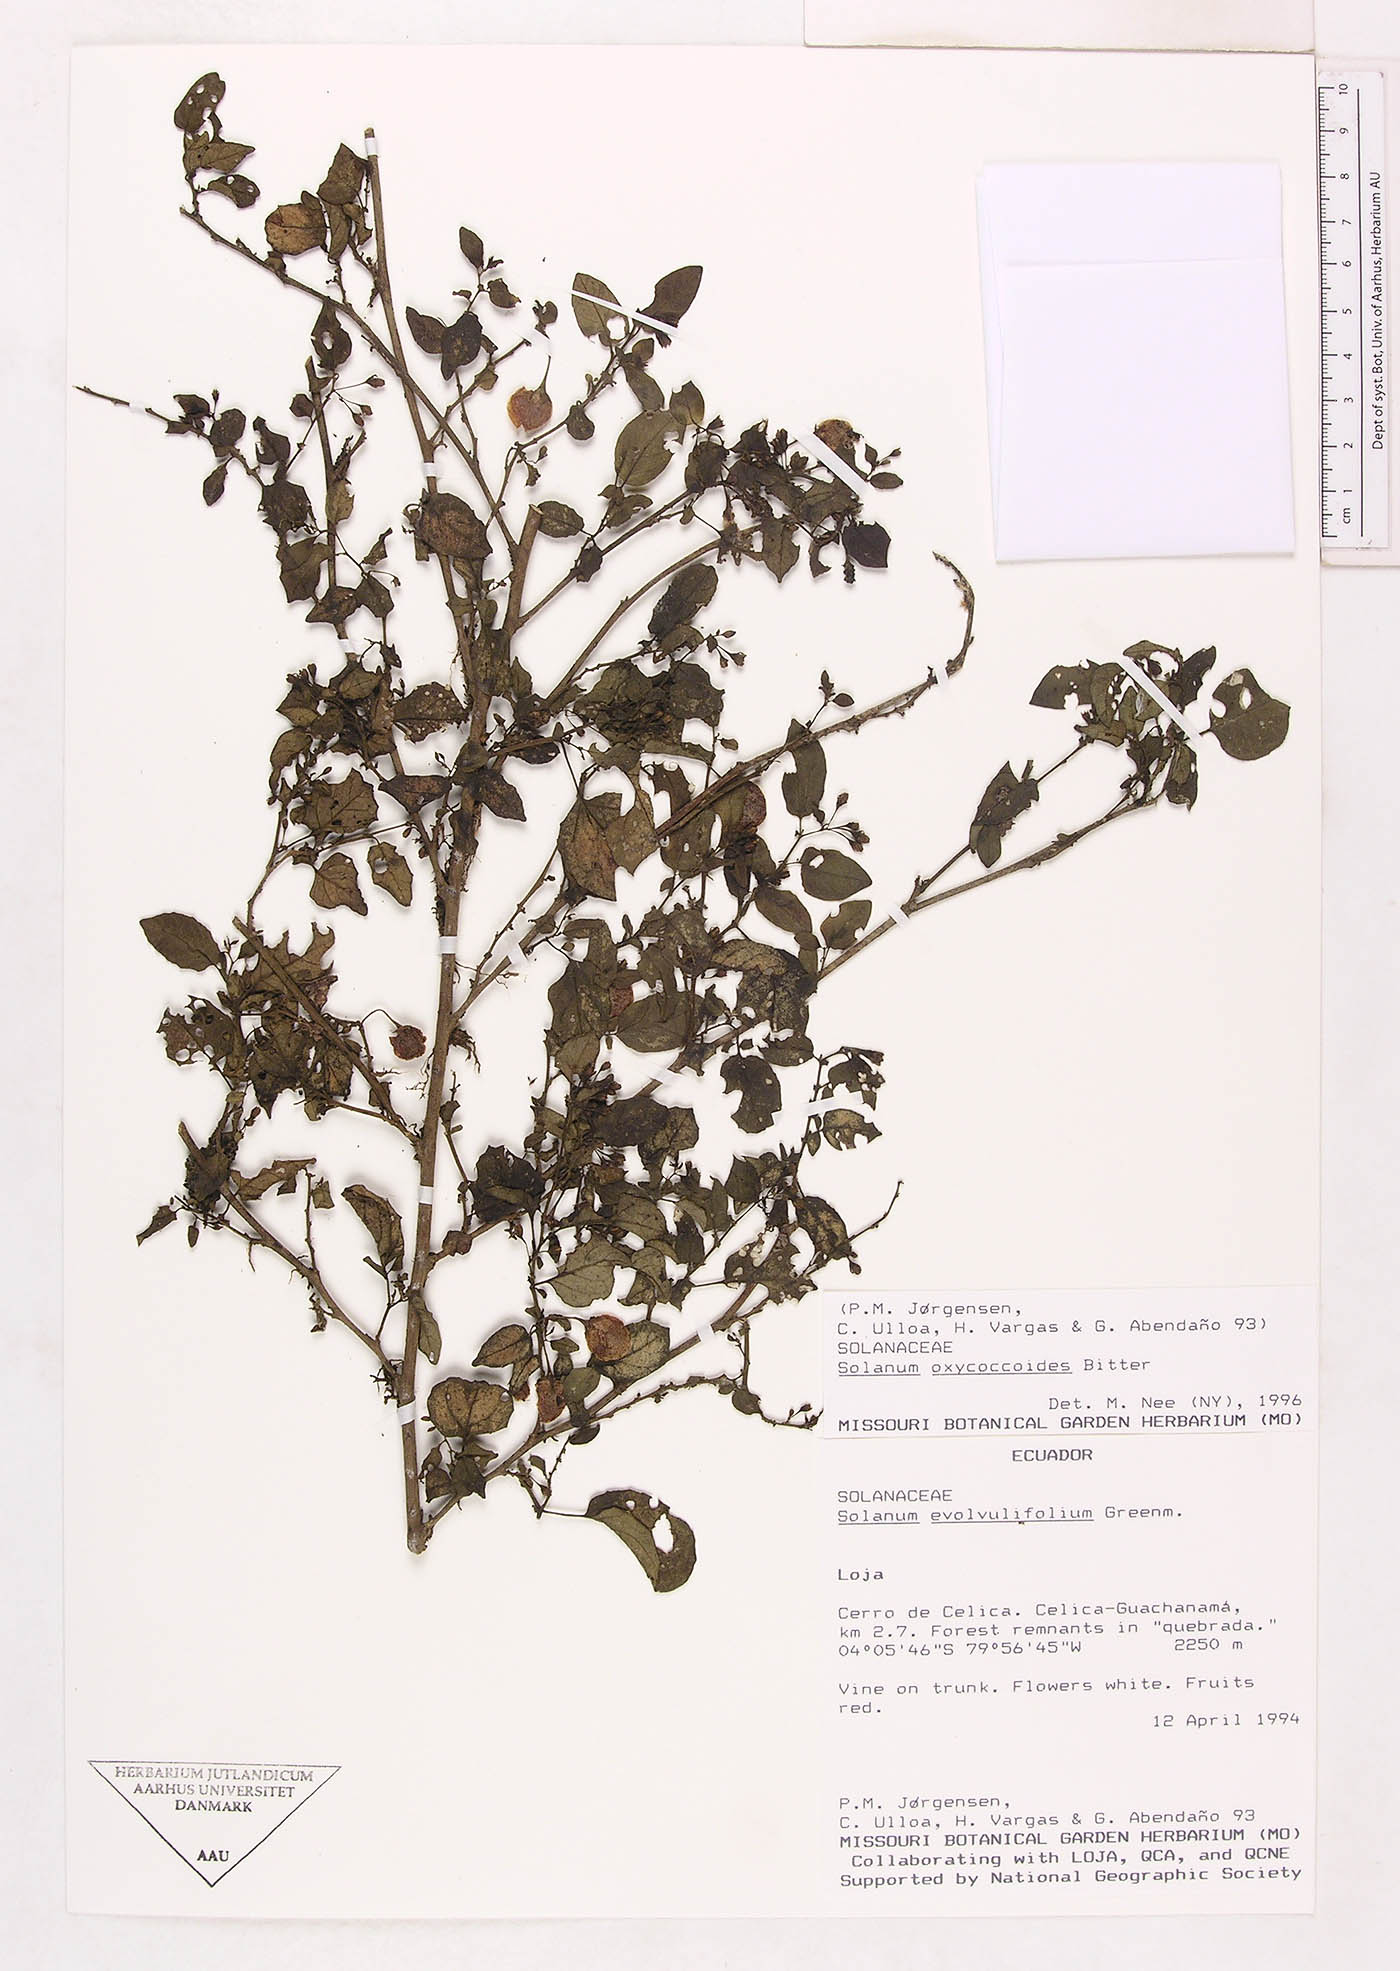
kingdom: Plantae
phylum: Tracheophyta
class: Magnoliopsida
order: Solanales
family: Solanaceae
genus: Solanum
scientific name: Solanum oxycoccoides
